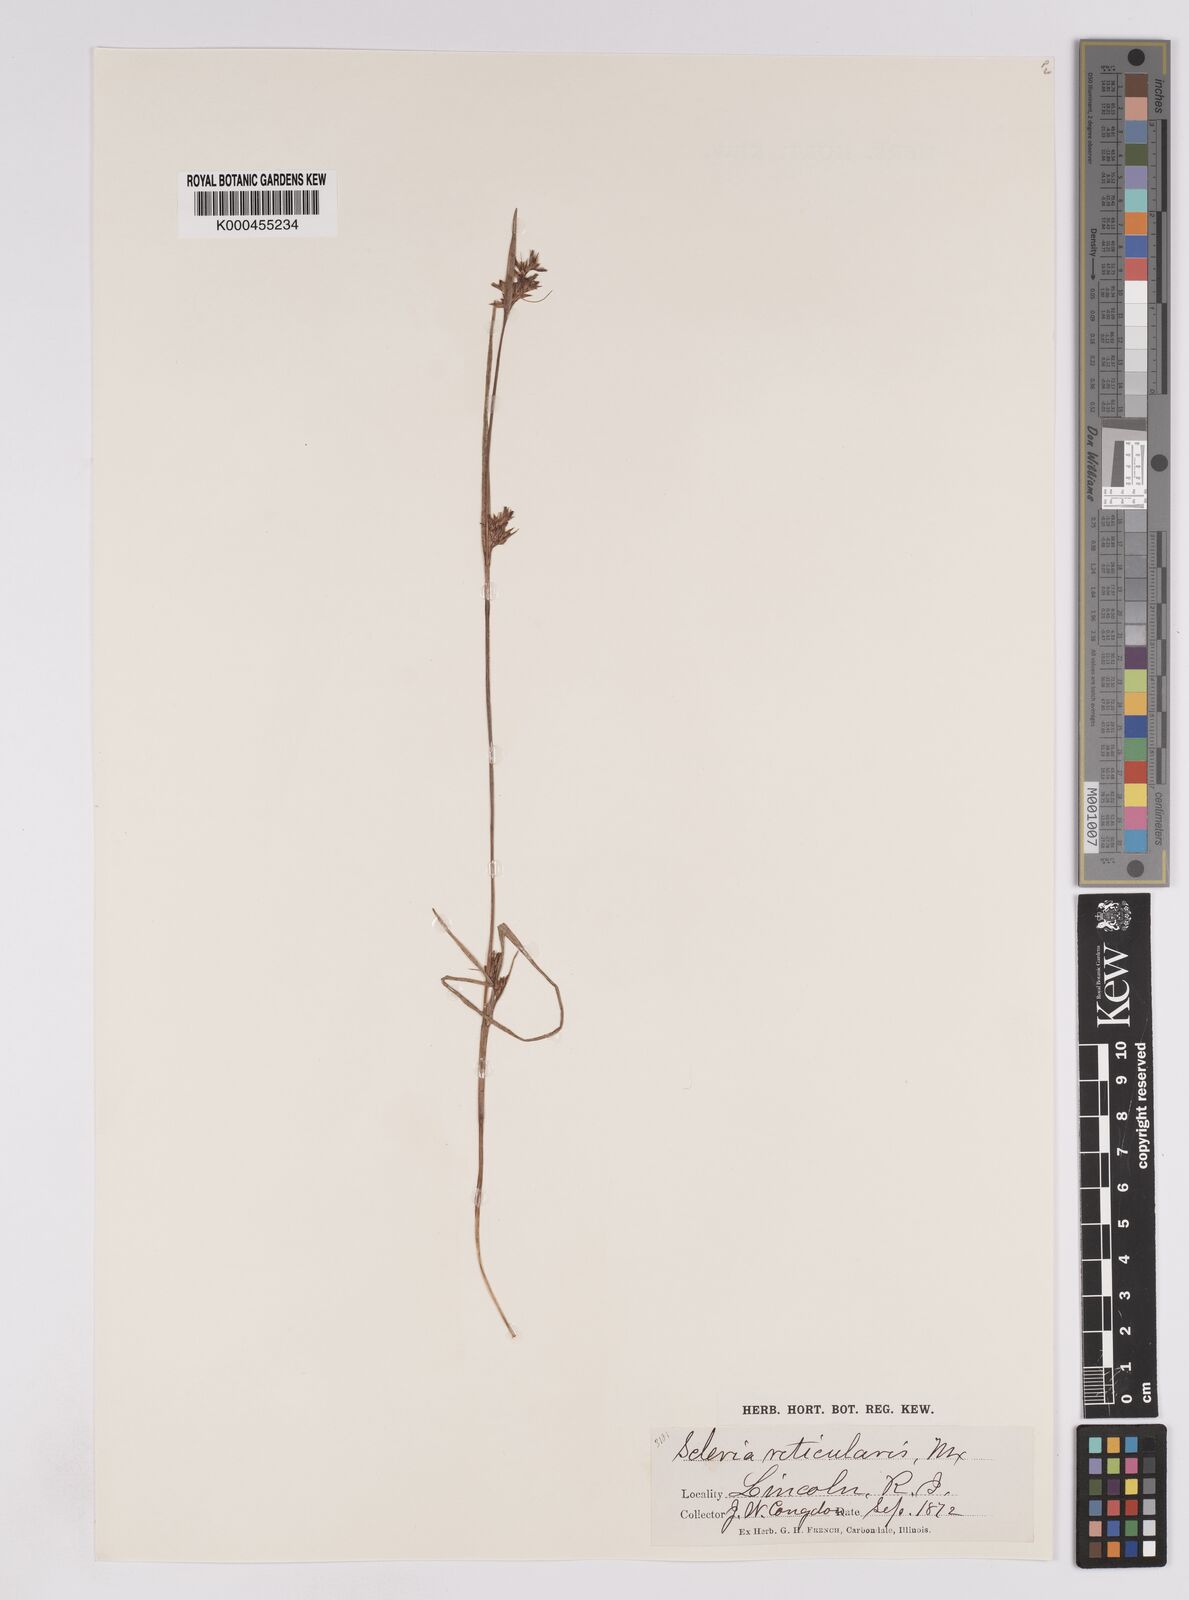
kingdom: Plantae
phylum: Tracheophyta
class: Liliopsida
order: Poales
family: Cyperaceae
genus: Scleria
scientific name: Scleria
